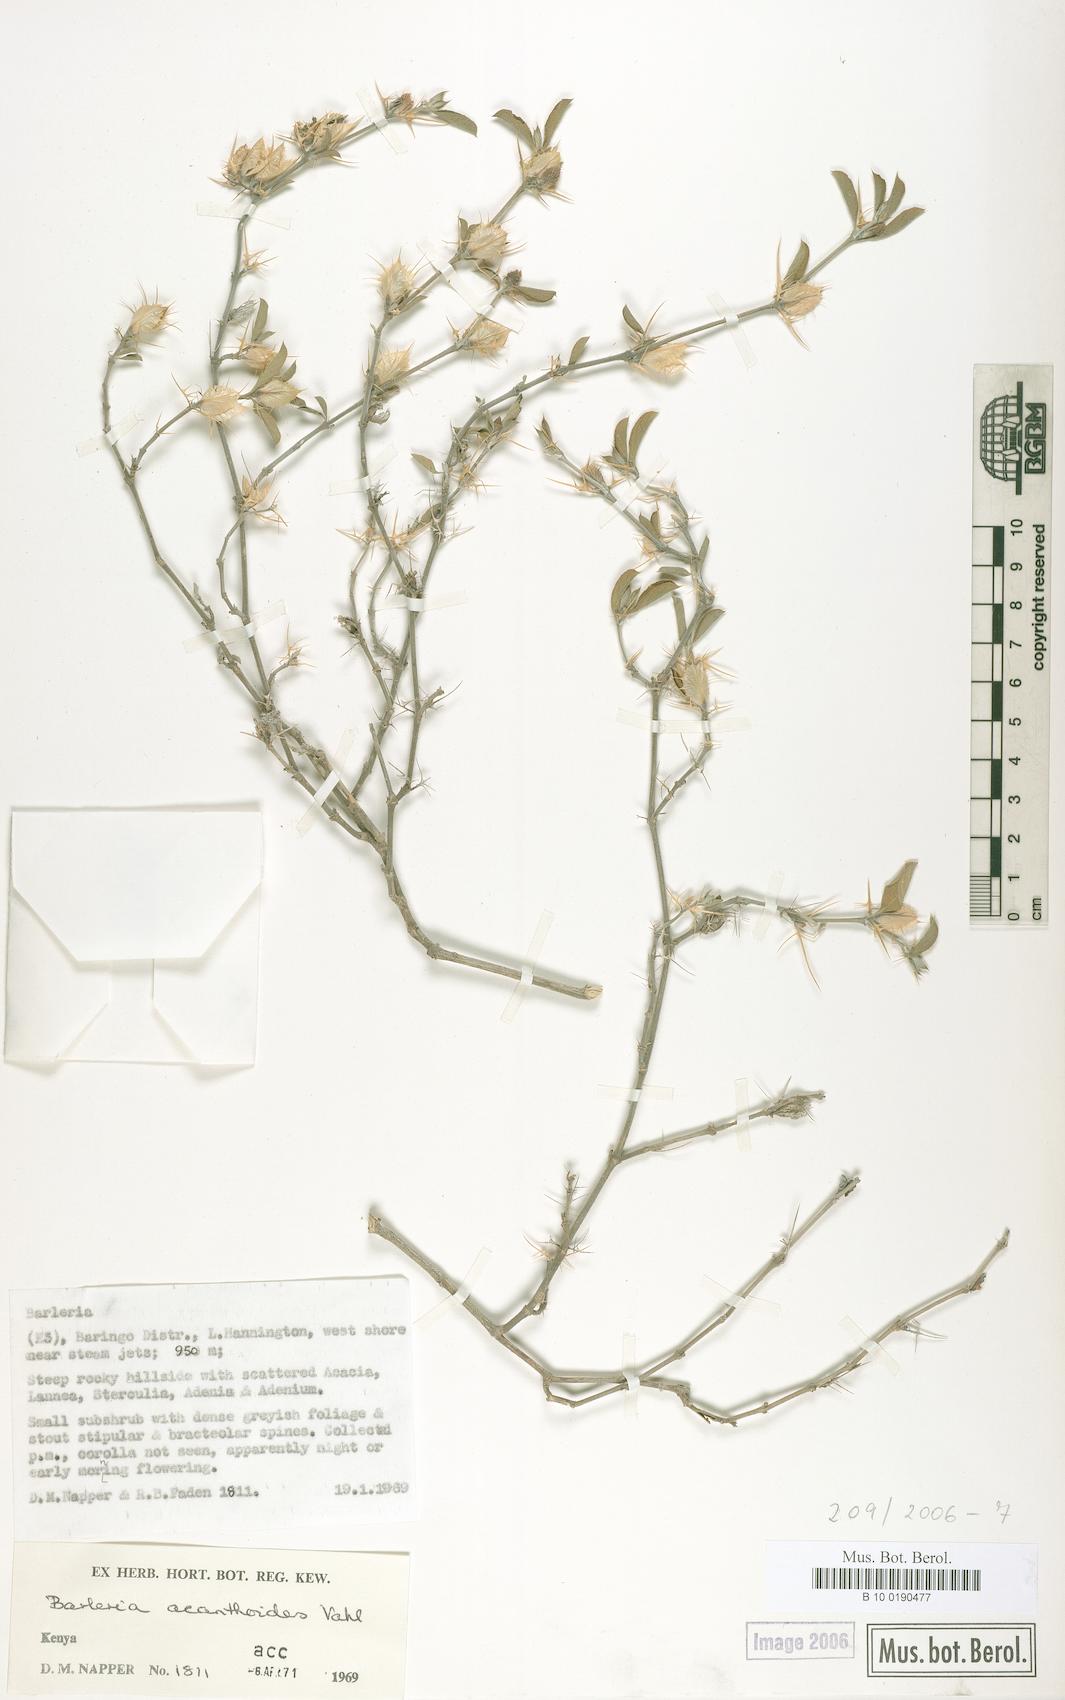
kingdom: Plantae
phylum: Tracheophyta
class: Magnoliopsida
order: Lamiales
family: Acanthaceae
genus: Barleria
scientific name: Barleria acanthoides
